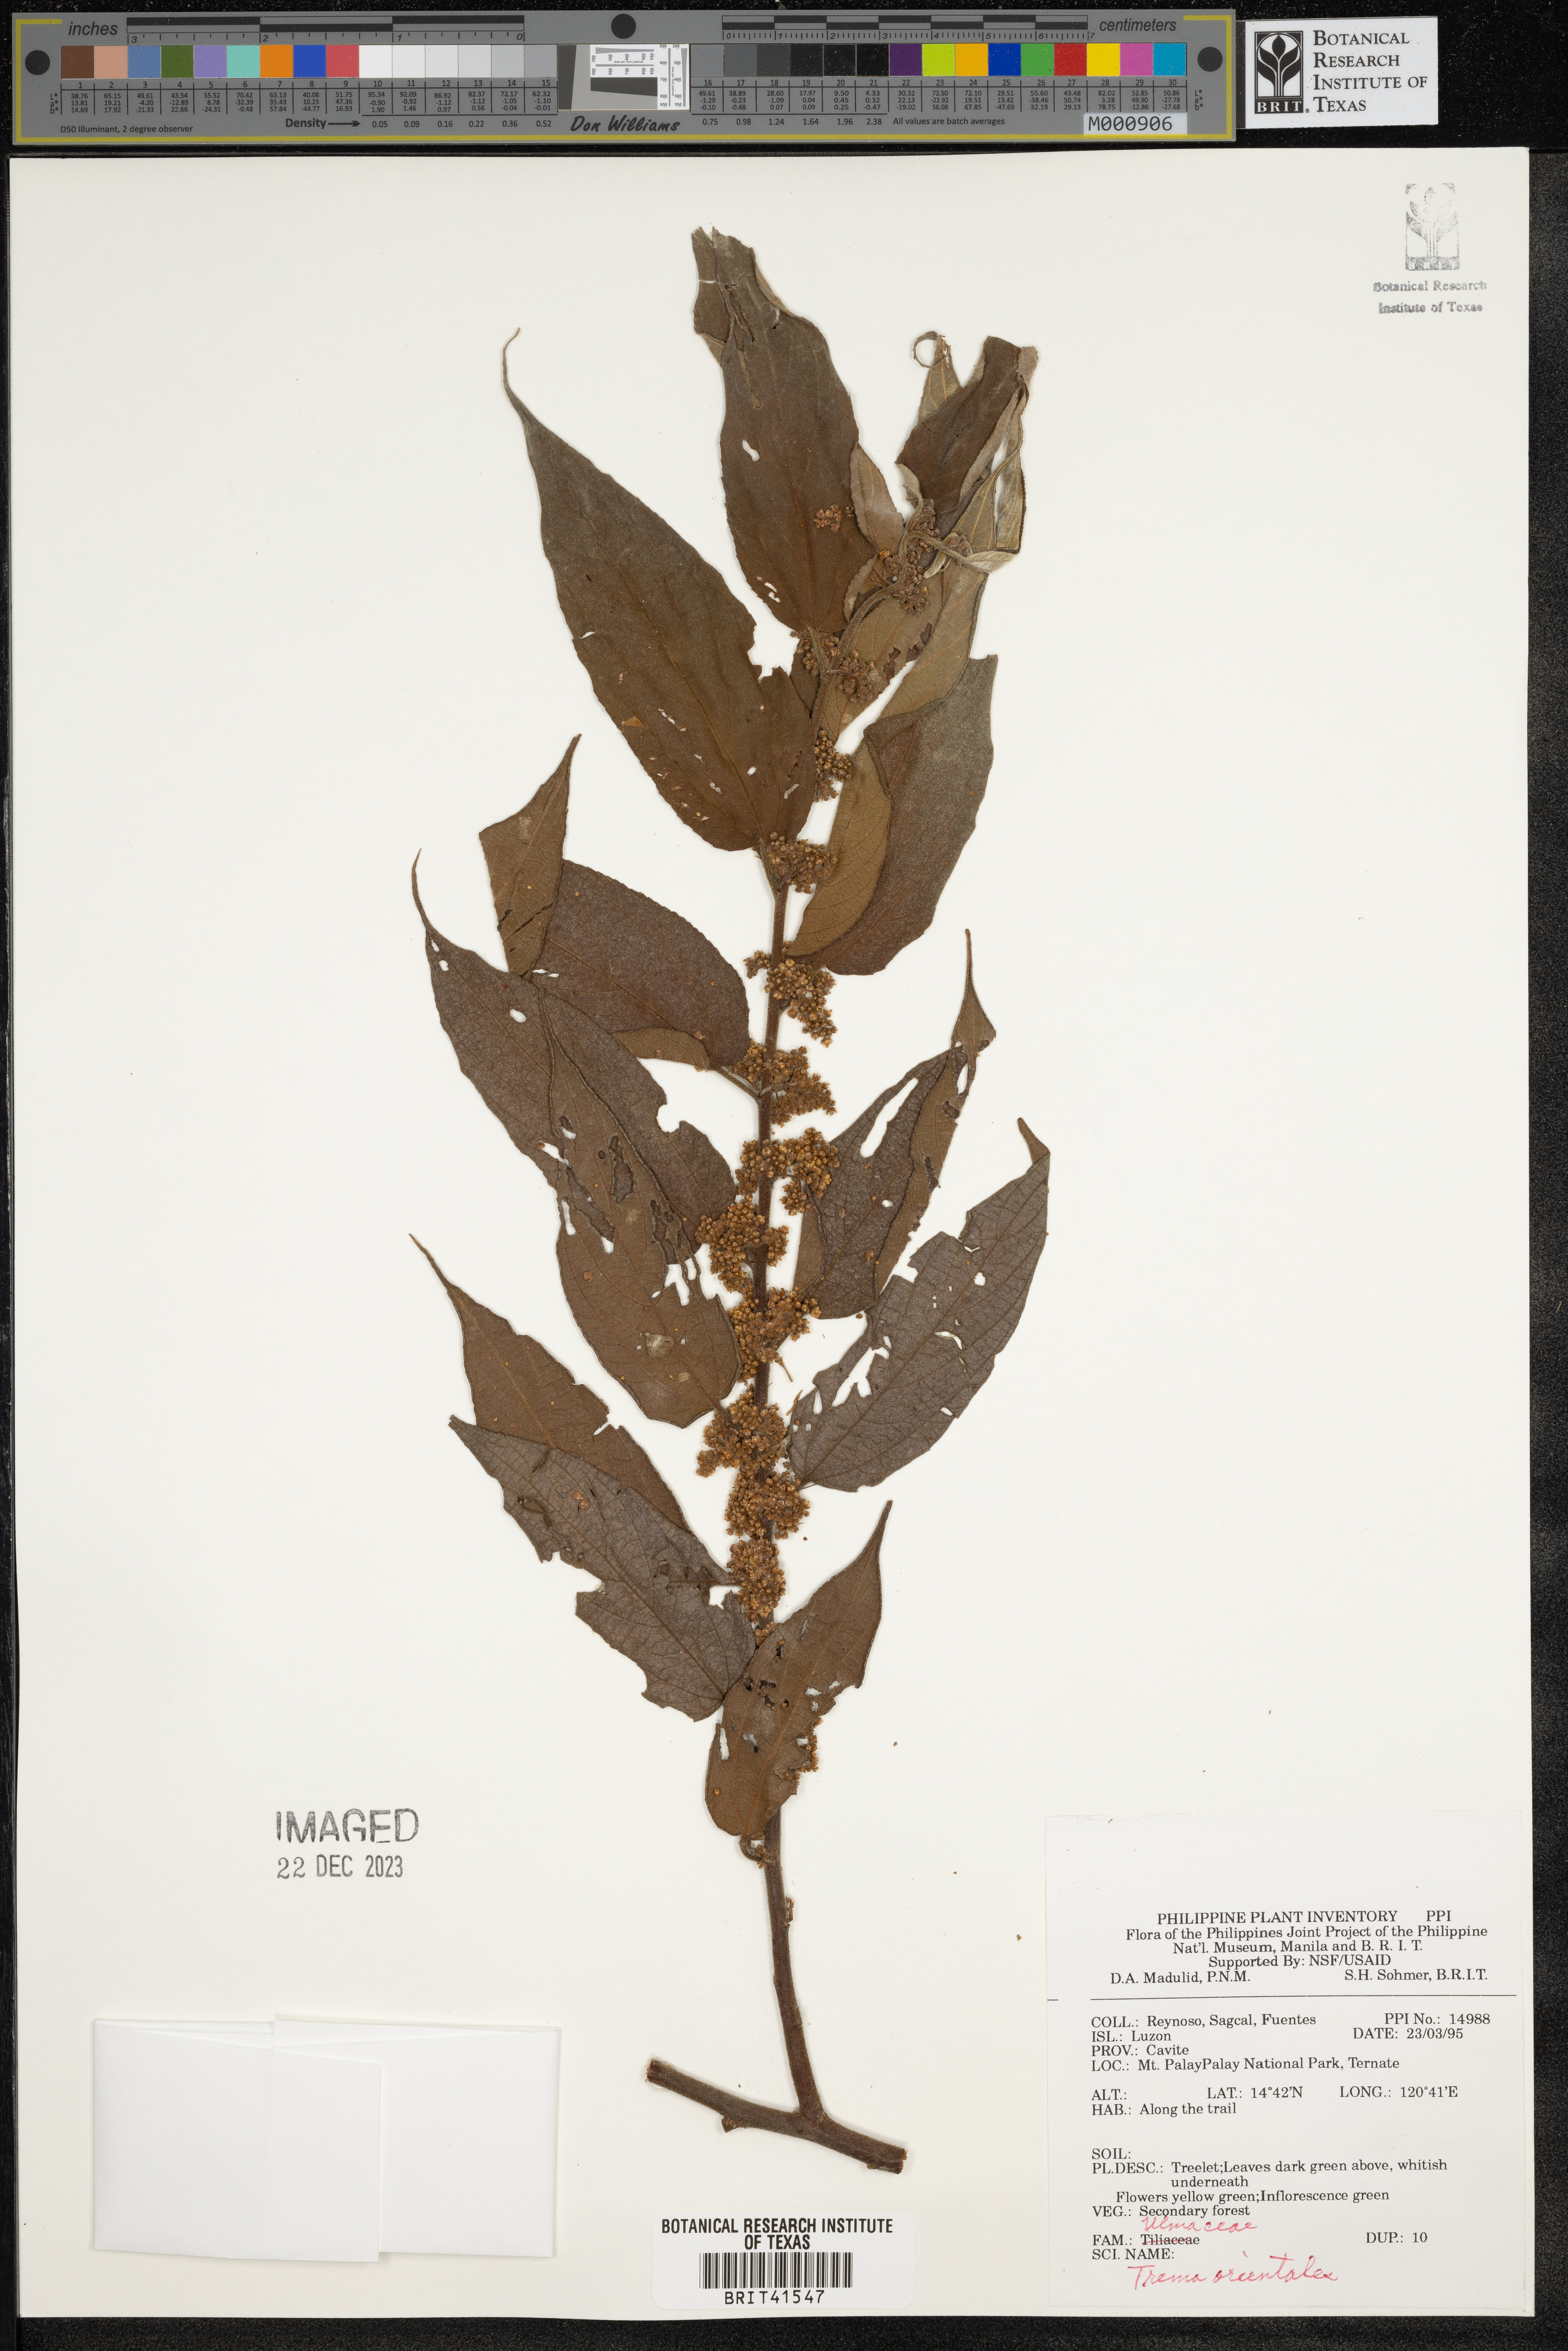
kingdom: Plantae
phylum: Tracheophyta
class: Magnoliopsida
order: Rosales
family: Cannabaceae
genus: Trema
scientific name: Trema orientale
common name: Indian charcoal tree
